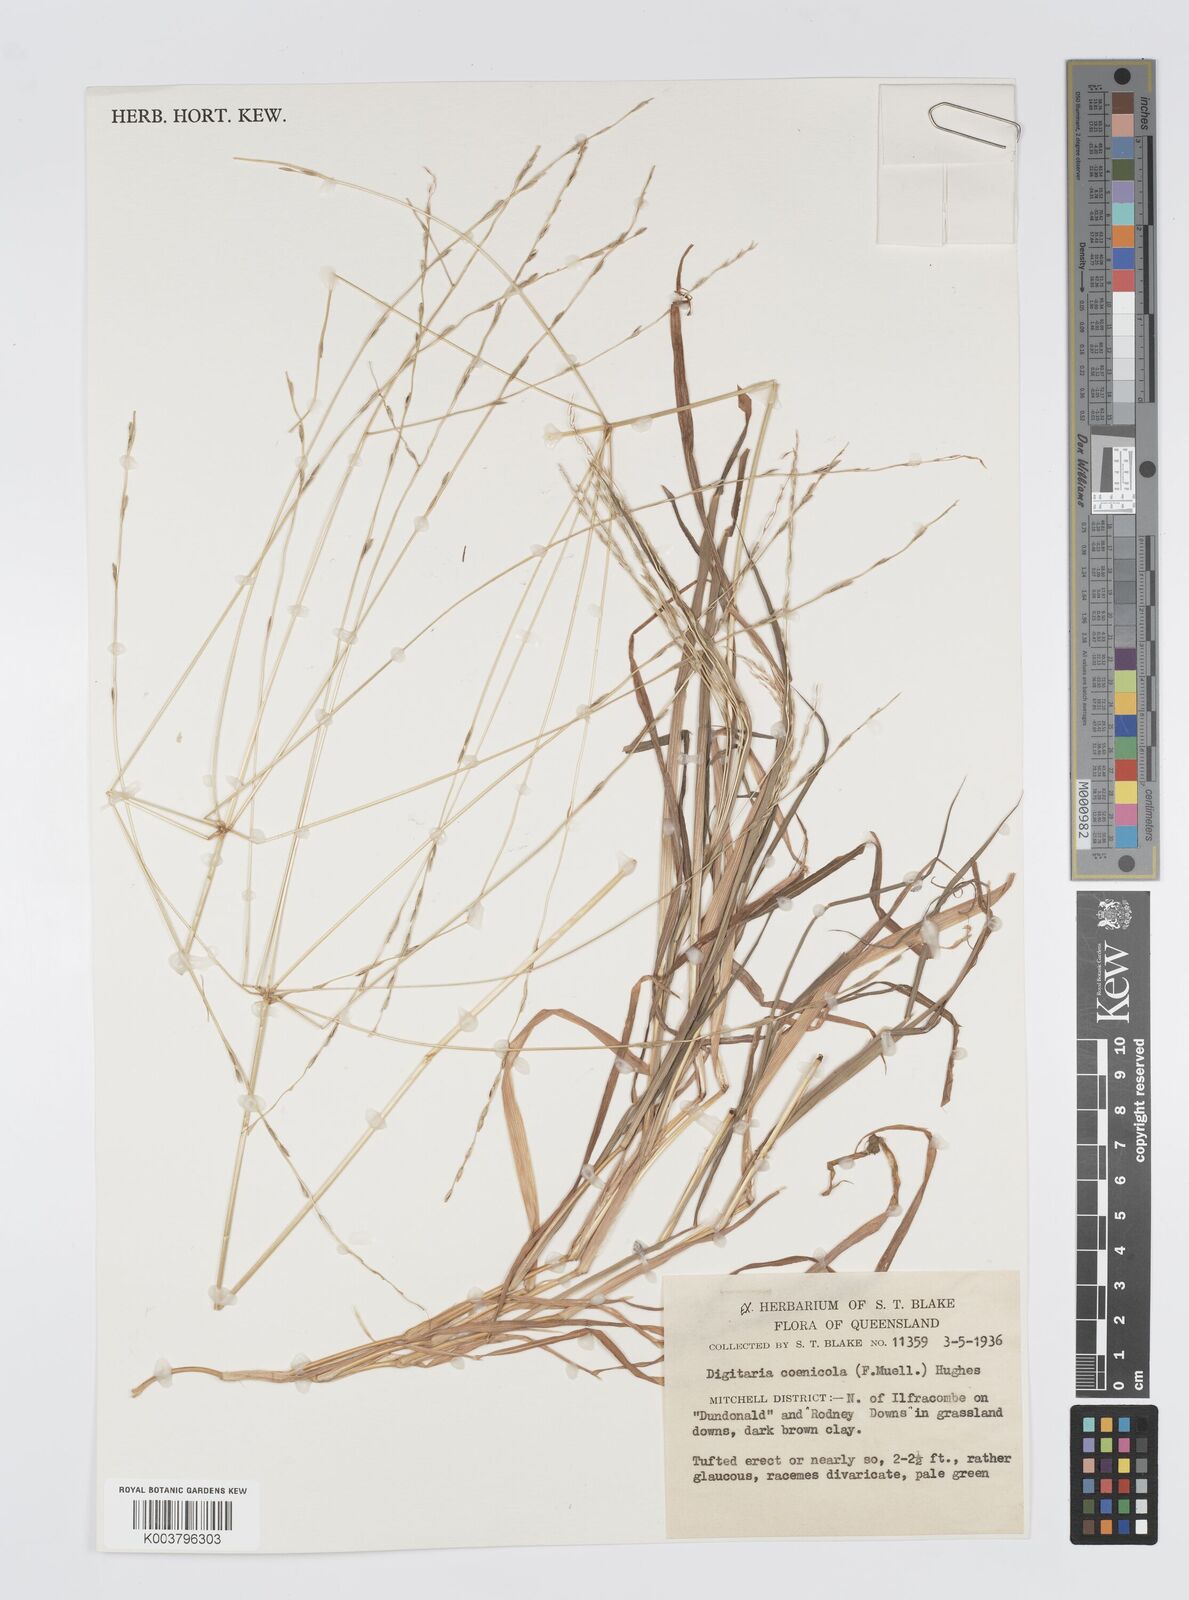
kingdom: Plantae
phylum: Tracheophyta
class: Liliopsida
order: Poales
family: Poaceae
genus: Digitaria
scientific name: Digitaria coenicola
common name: Kanta grass
